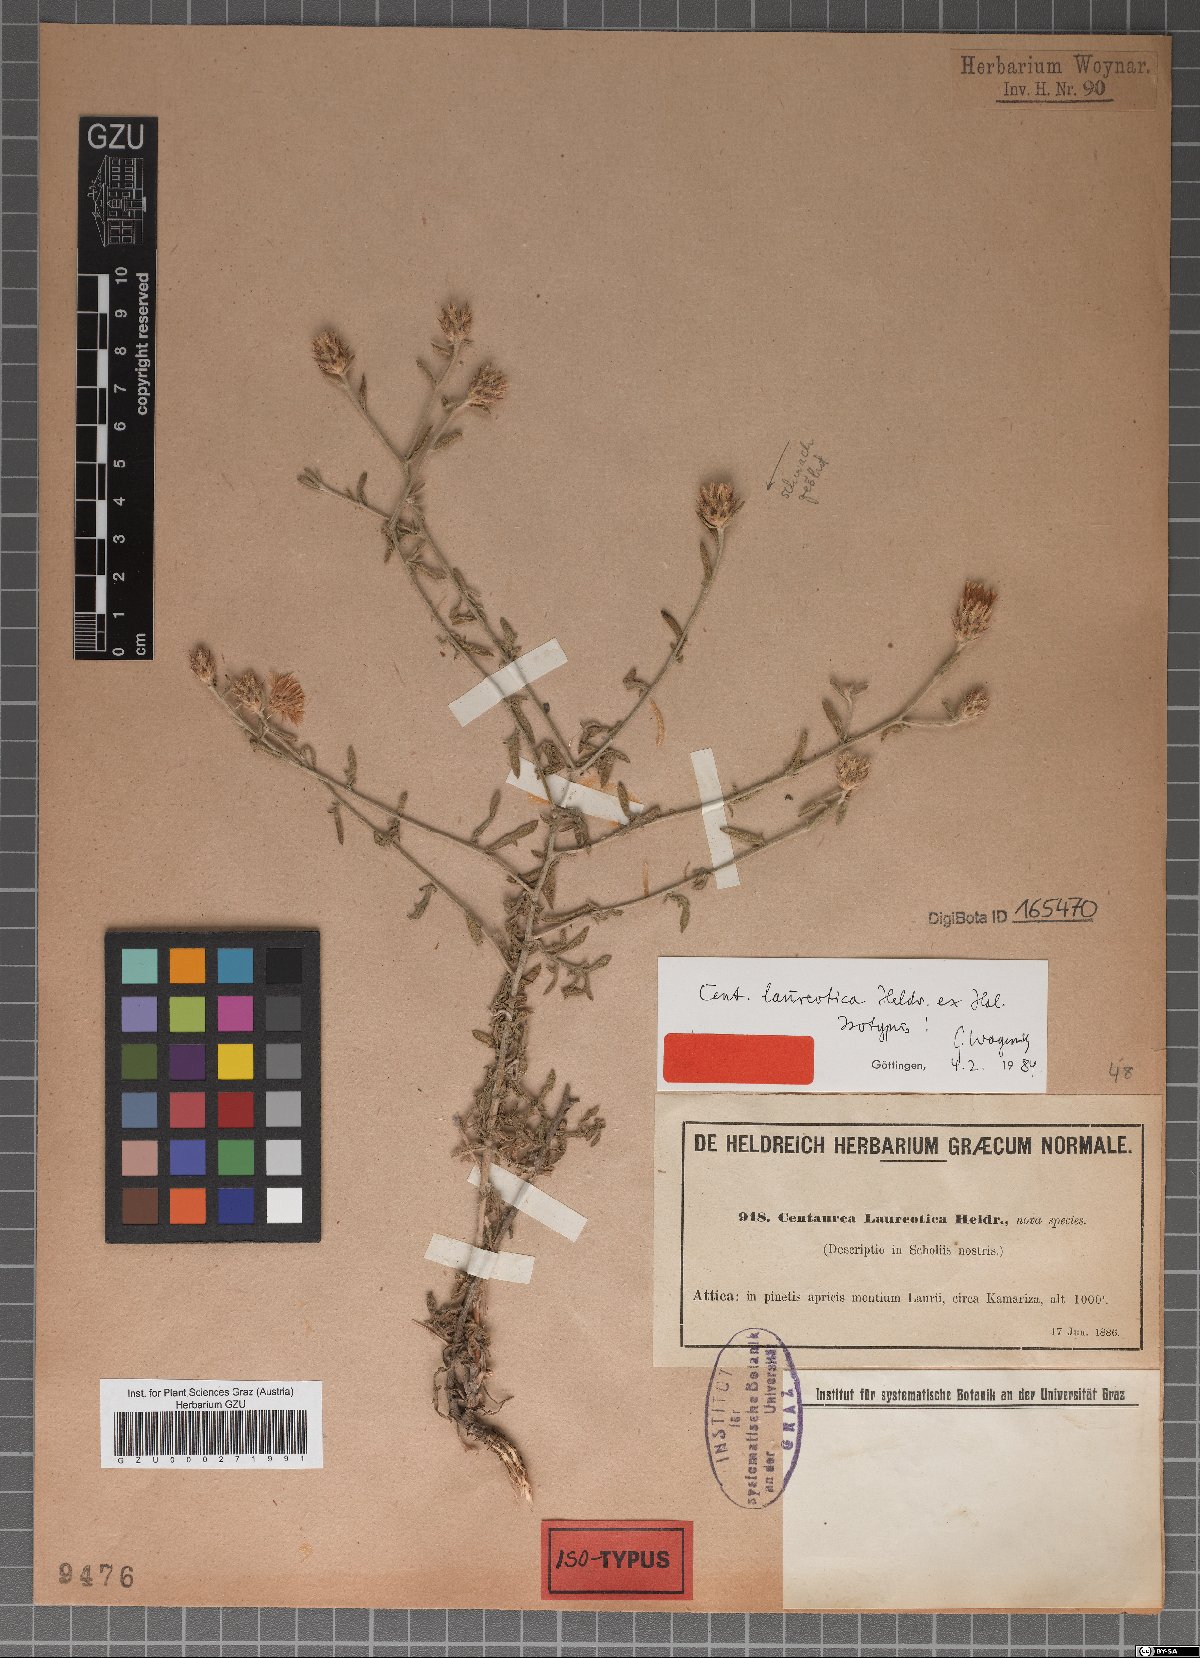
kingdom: Plantae
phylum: Tracheophyta
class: Magnoliopsida
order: Asterales
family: Asteraceae
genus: Centaurea
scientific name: Centaurea laureotica
